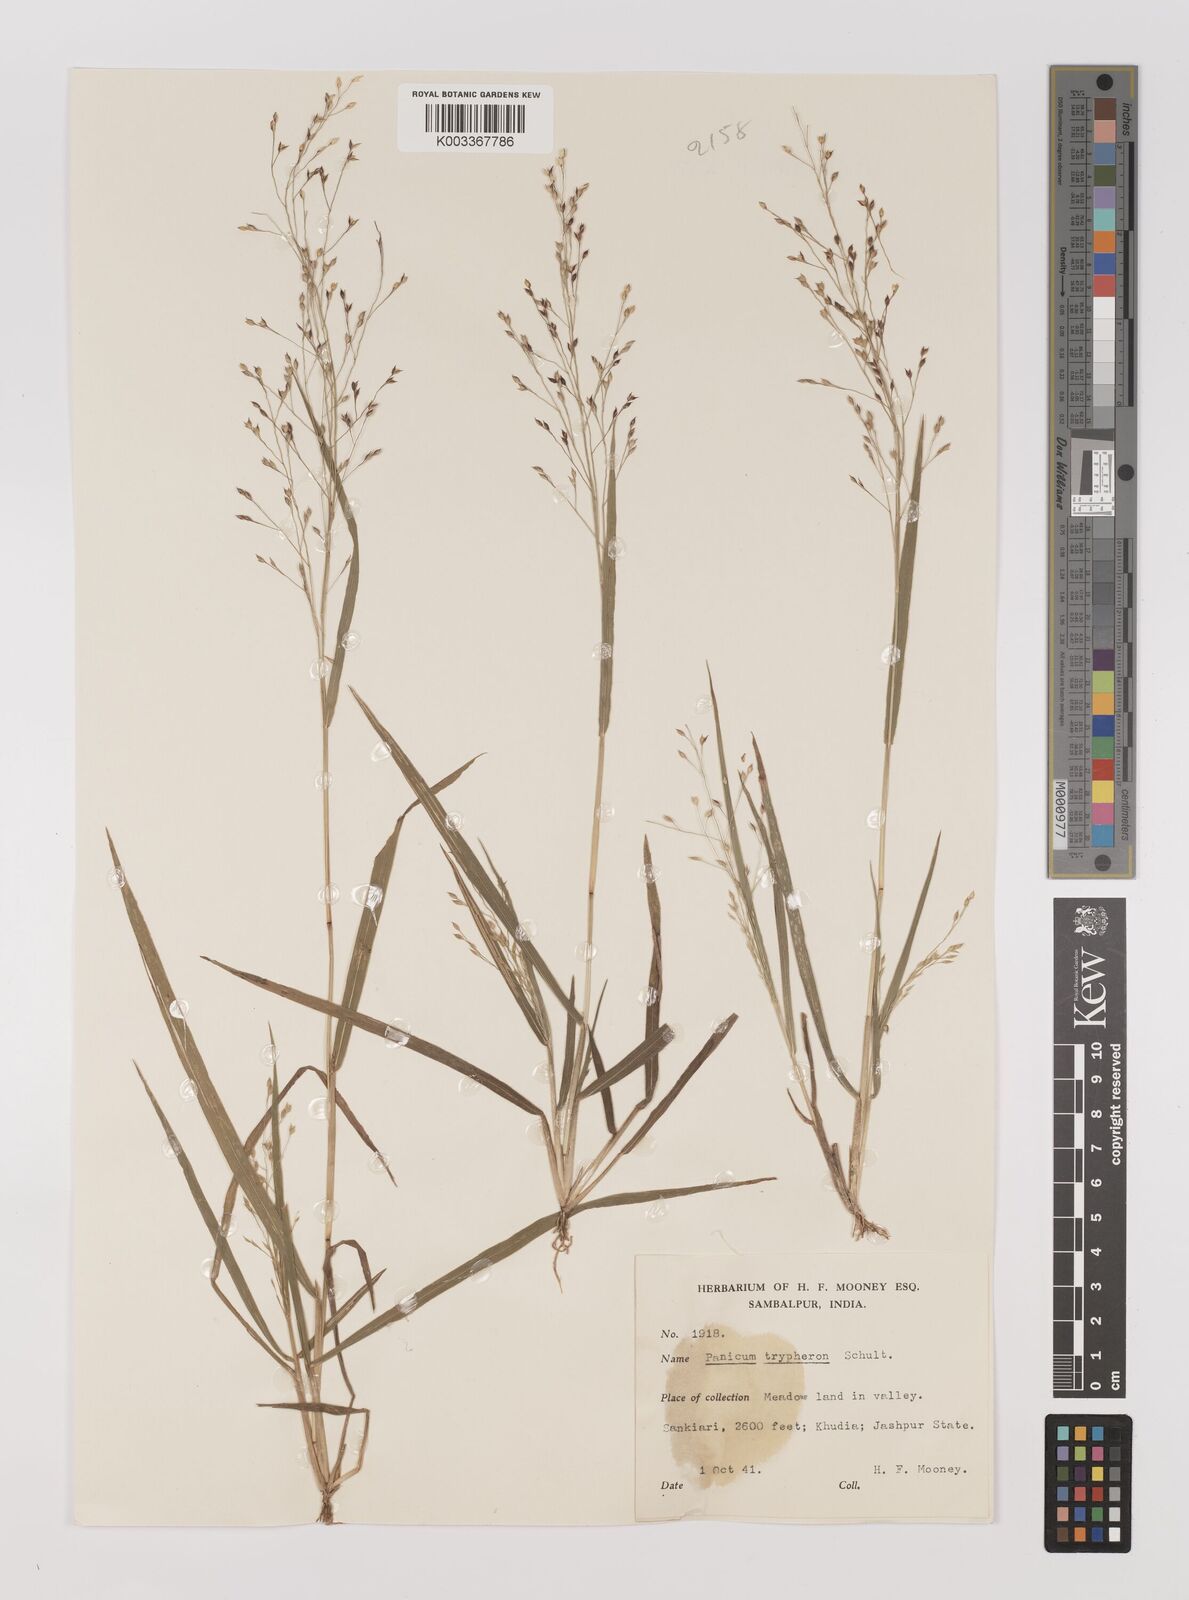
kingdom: Plantae
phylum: Tracheophyta
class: Liliopsida
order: Poales
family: Poaceae
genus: Panicum
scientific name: Panicum curviflorum
